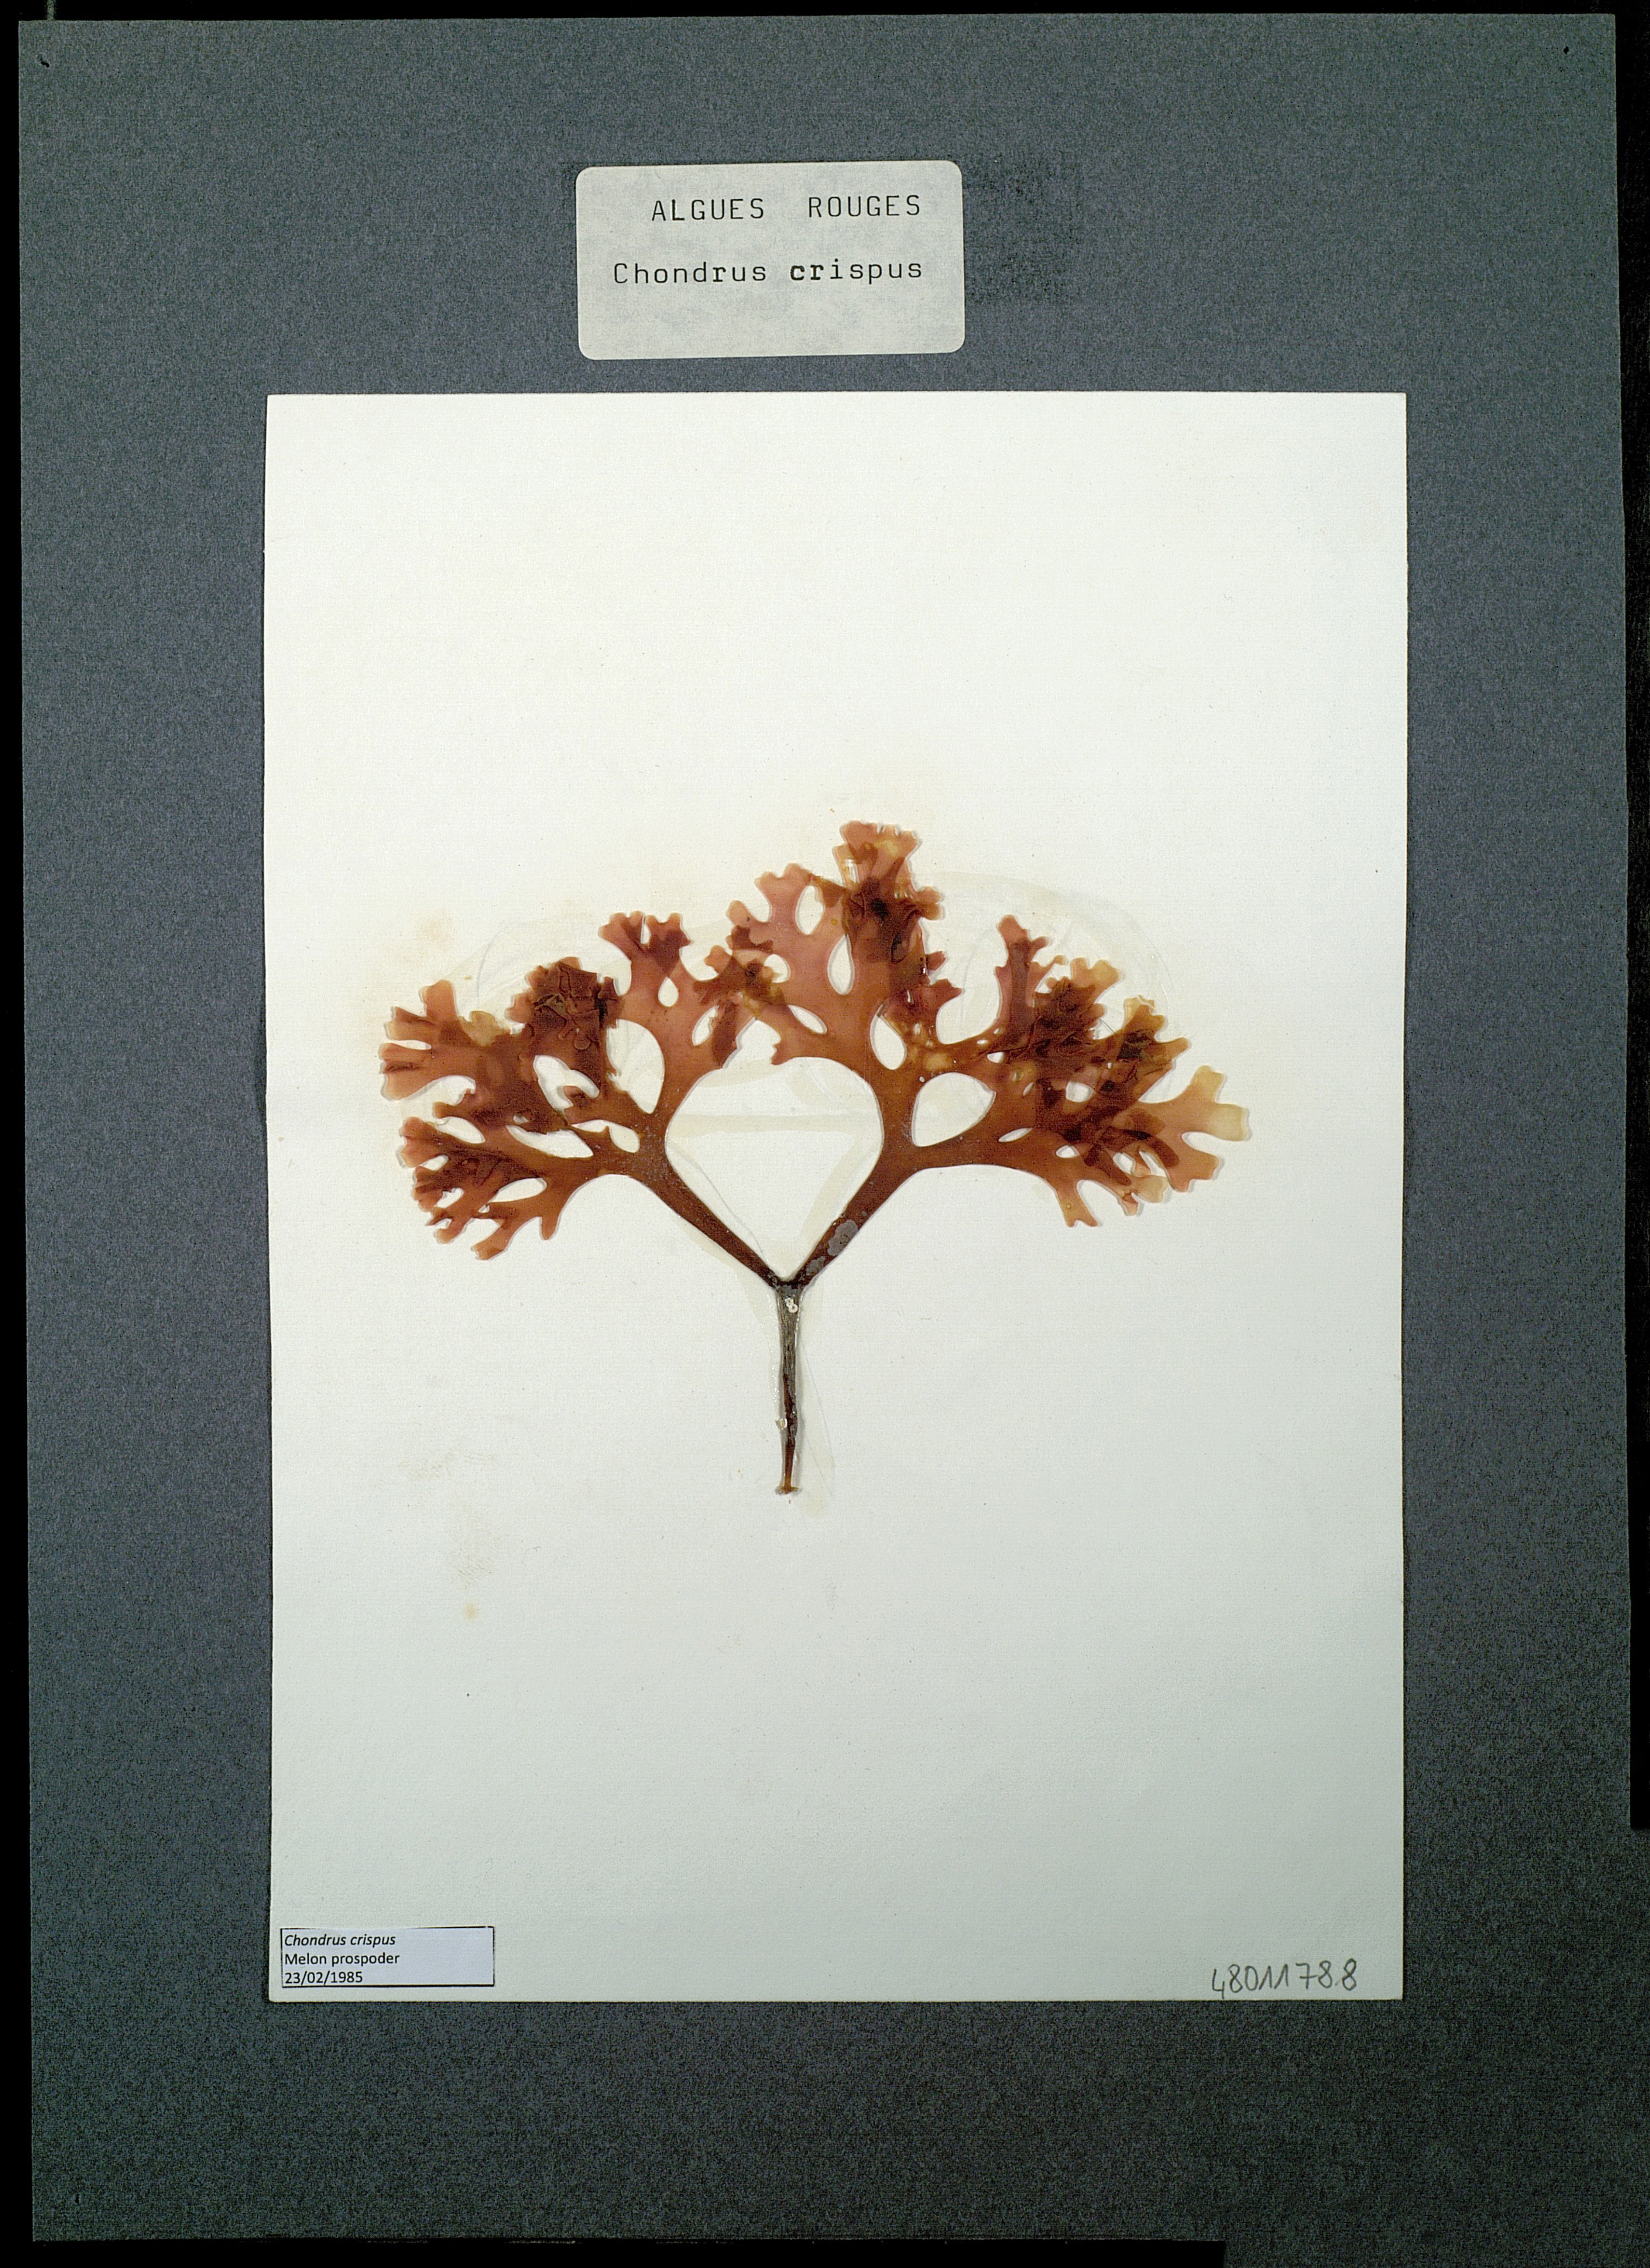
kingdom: Plantae
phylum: Rhodophyta
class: Florideophyceae
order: Gigartinales
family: Gigartinaceae
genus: Chondrus
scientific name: Chondrus crispus
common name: Carrageen
